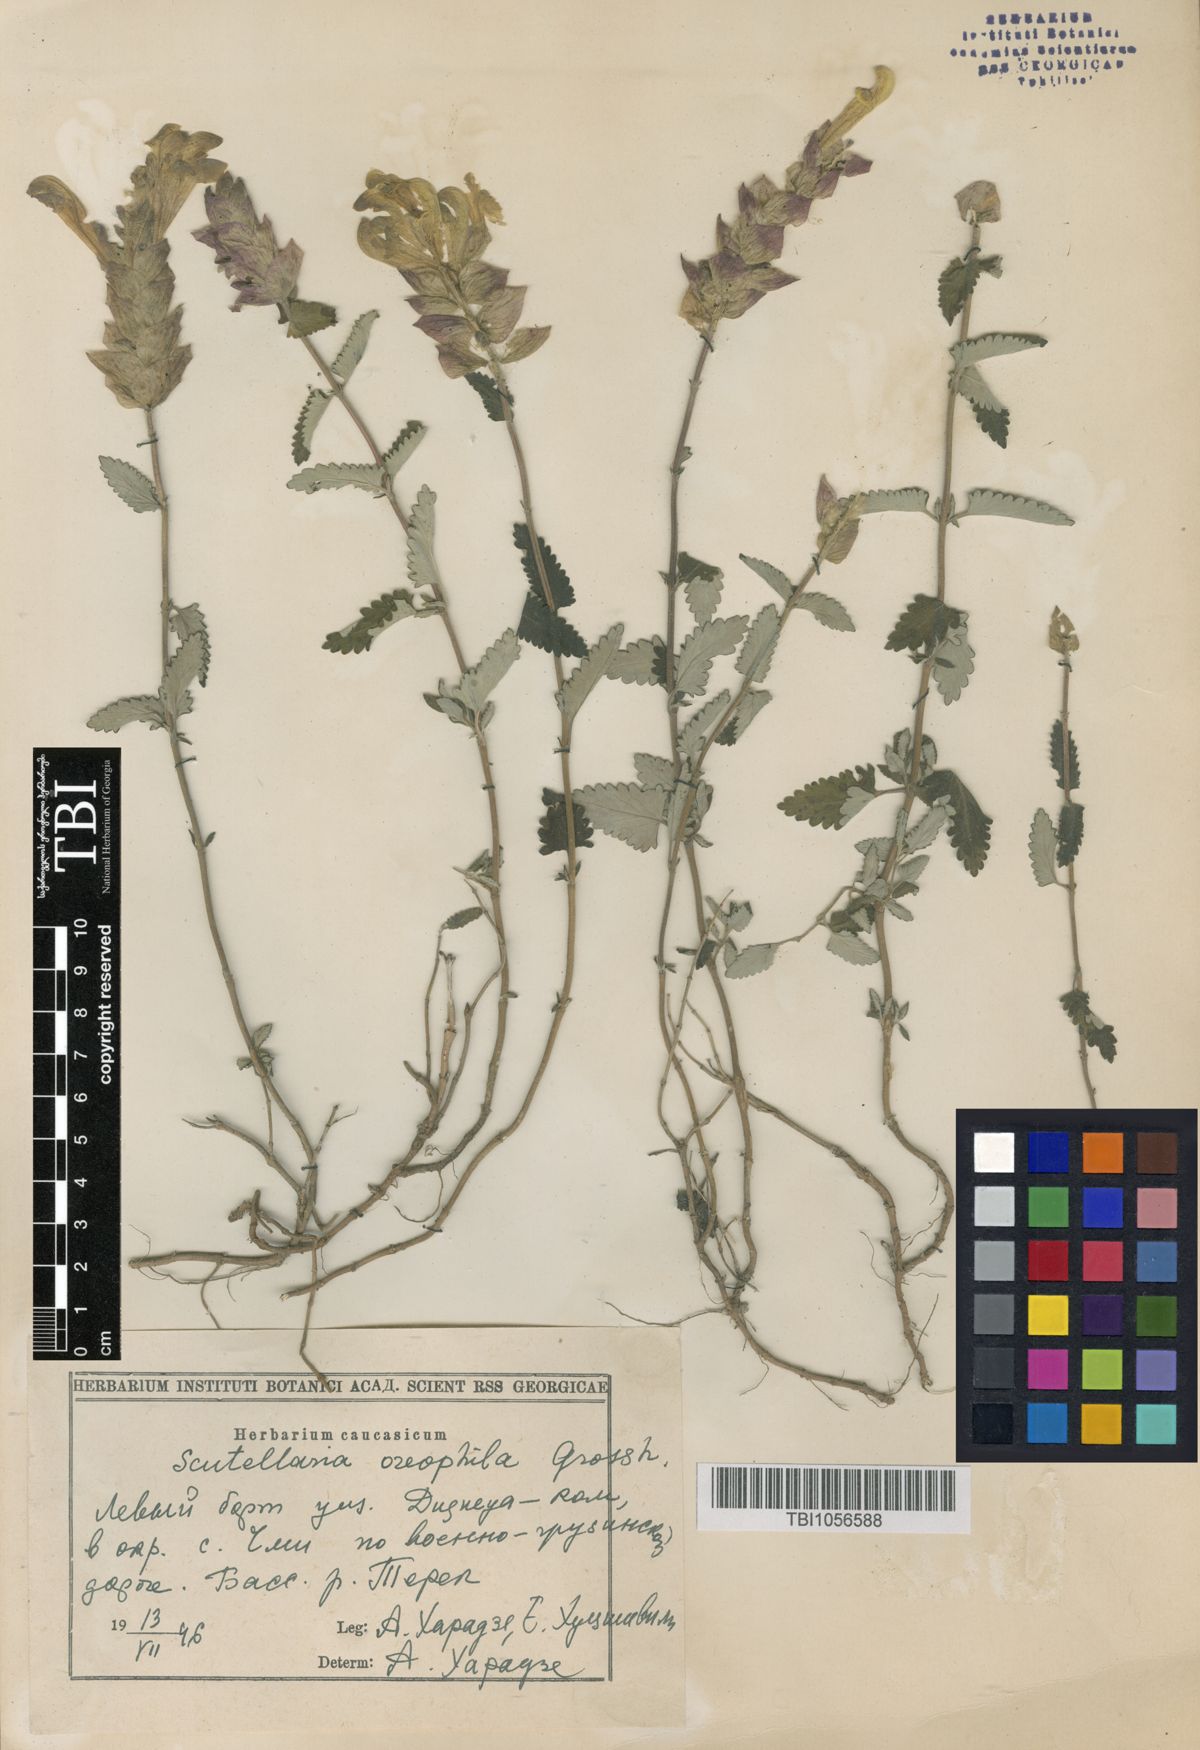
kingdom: Plantae
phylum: Tracheophyta
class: Magnoliopsida
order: Lamiales
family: Lamiaceae
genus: Scutellaria
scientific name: Scutellaria oreophila
